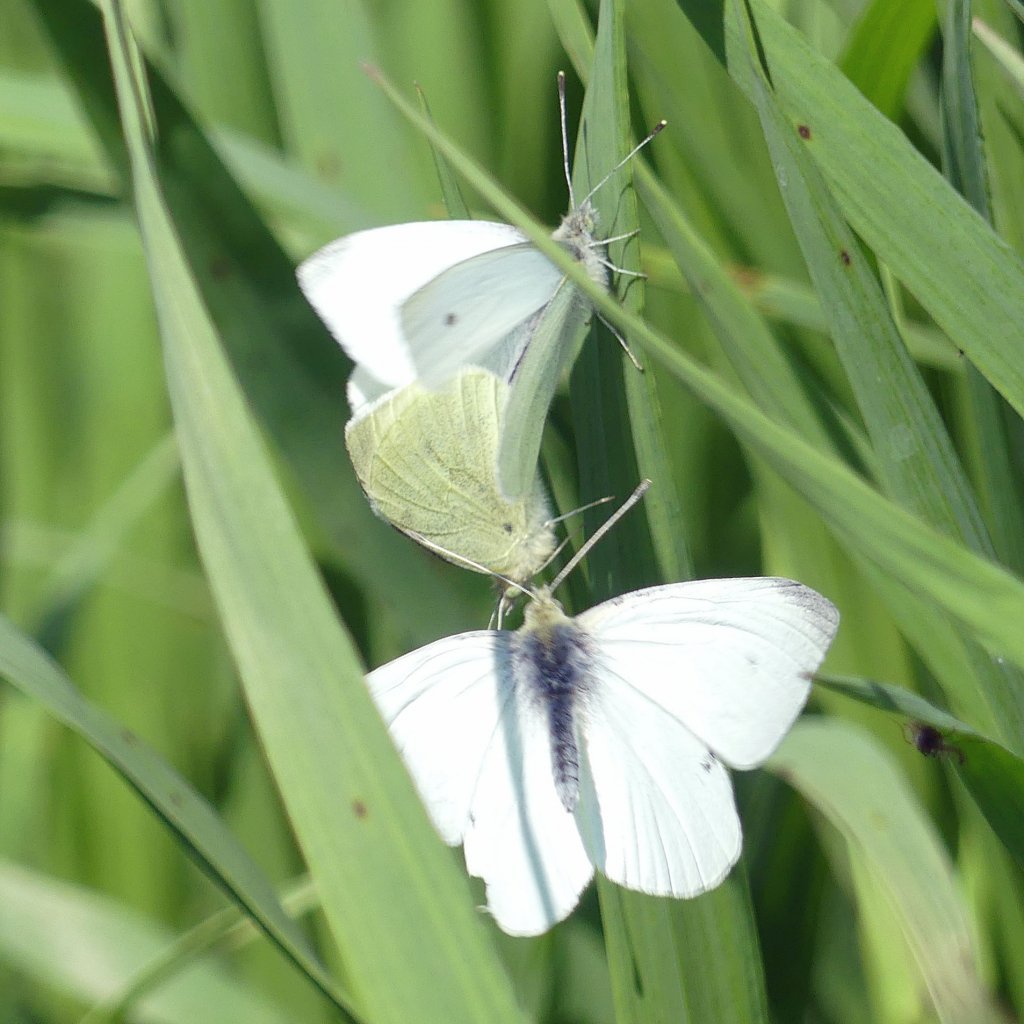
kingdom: Animalia
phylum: Arthropoda
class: Insecta
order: Lepidoptera
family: Pieridae
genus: Pieris
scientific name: Pieris rapae
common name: Cabbage White
